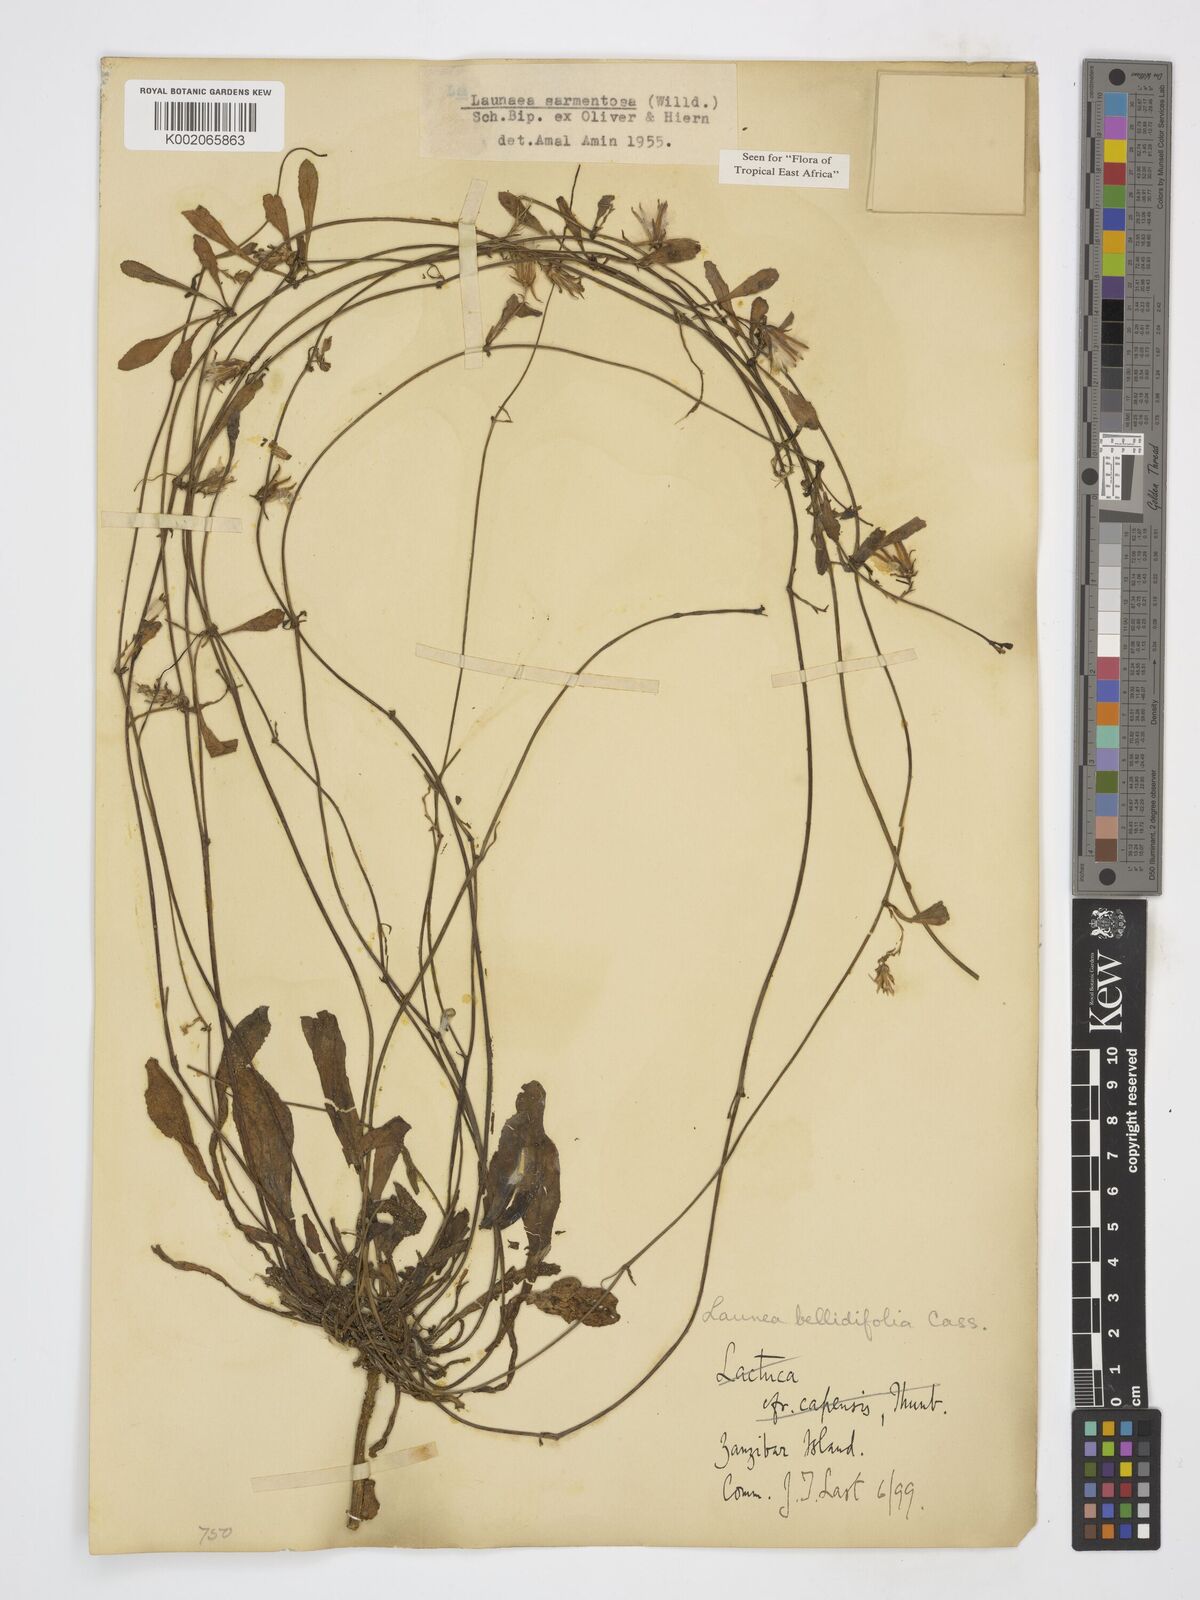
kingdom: Plantae
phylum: Tracheophyta
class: Magnoliopsida
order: Asterales
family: Asteraceae
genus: Launaea
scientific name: Launaea sarmentosa
